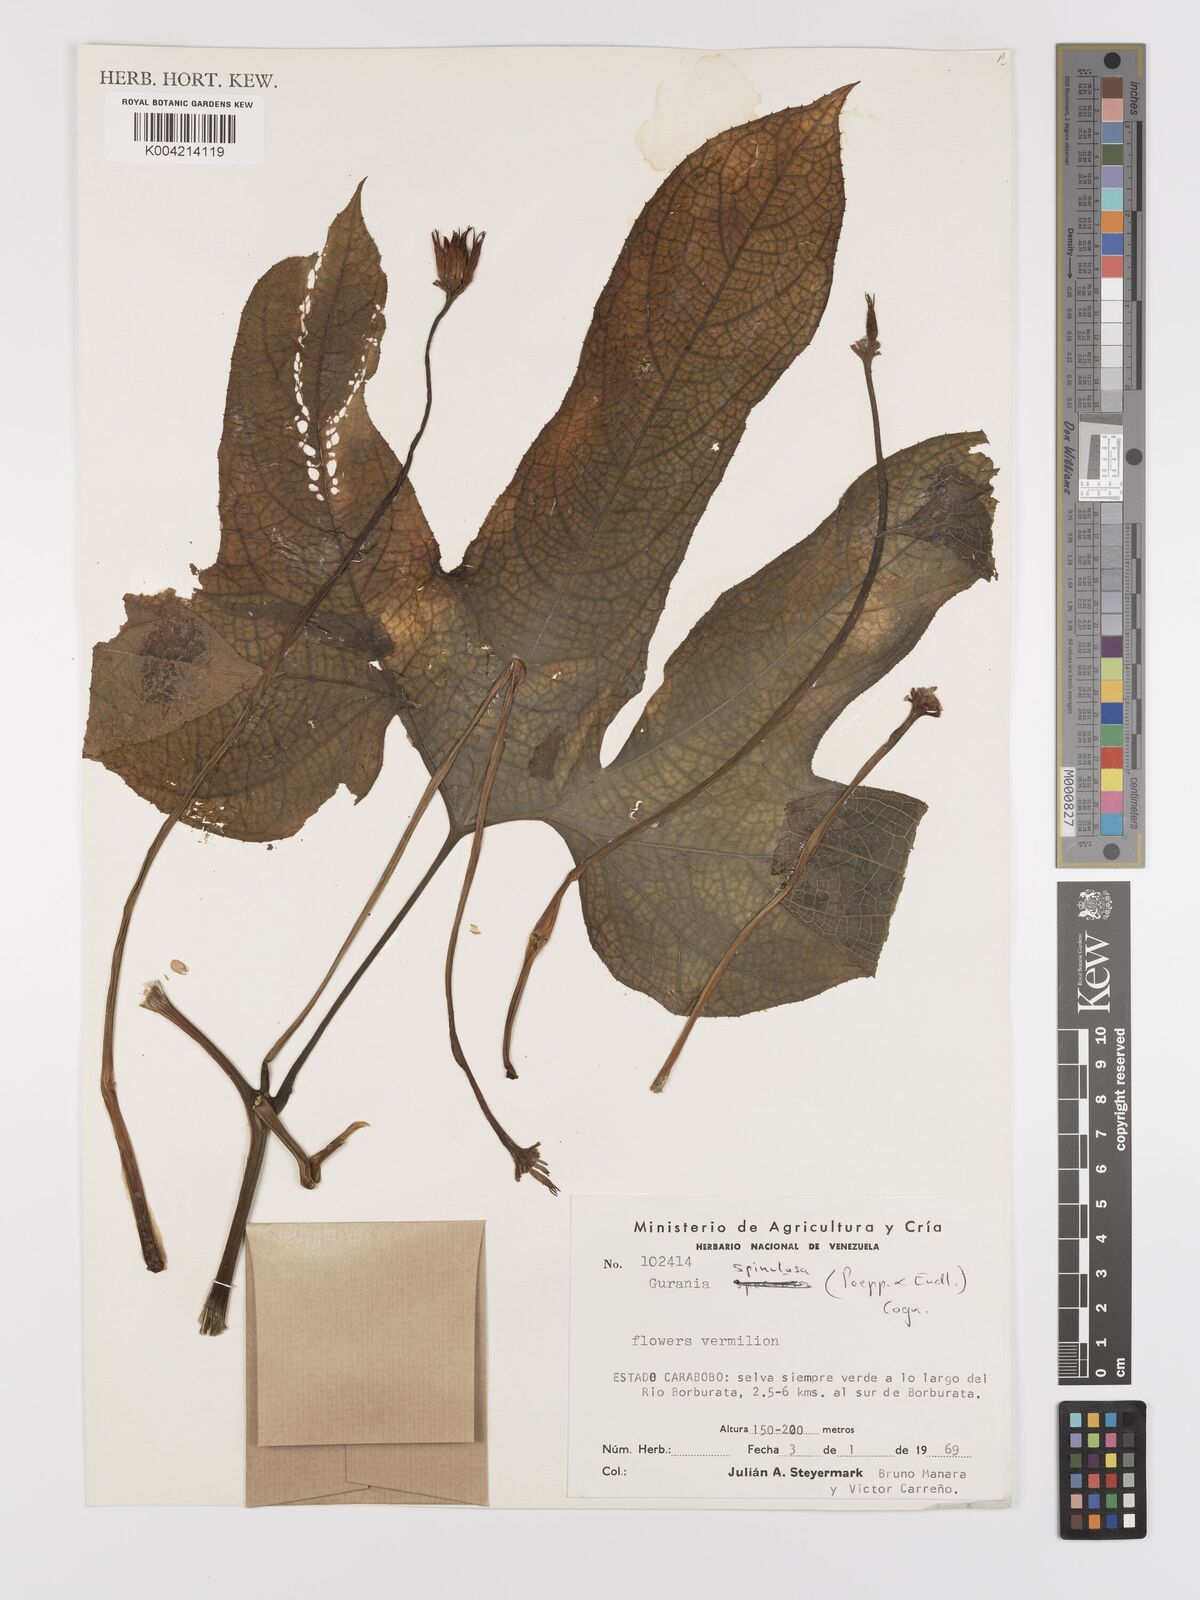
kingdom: Plantae
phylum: Tracheophyta
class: Magnoliopsida
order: Cucurbitales
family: Cucurbitaceae
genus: Gurania
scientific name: Gurania lobata
